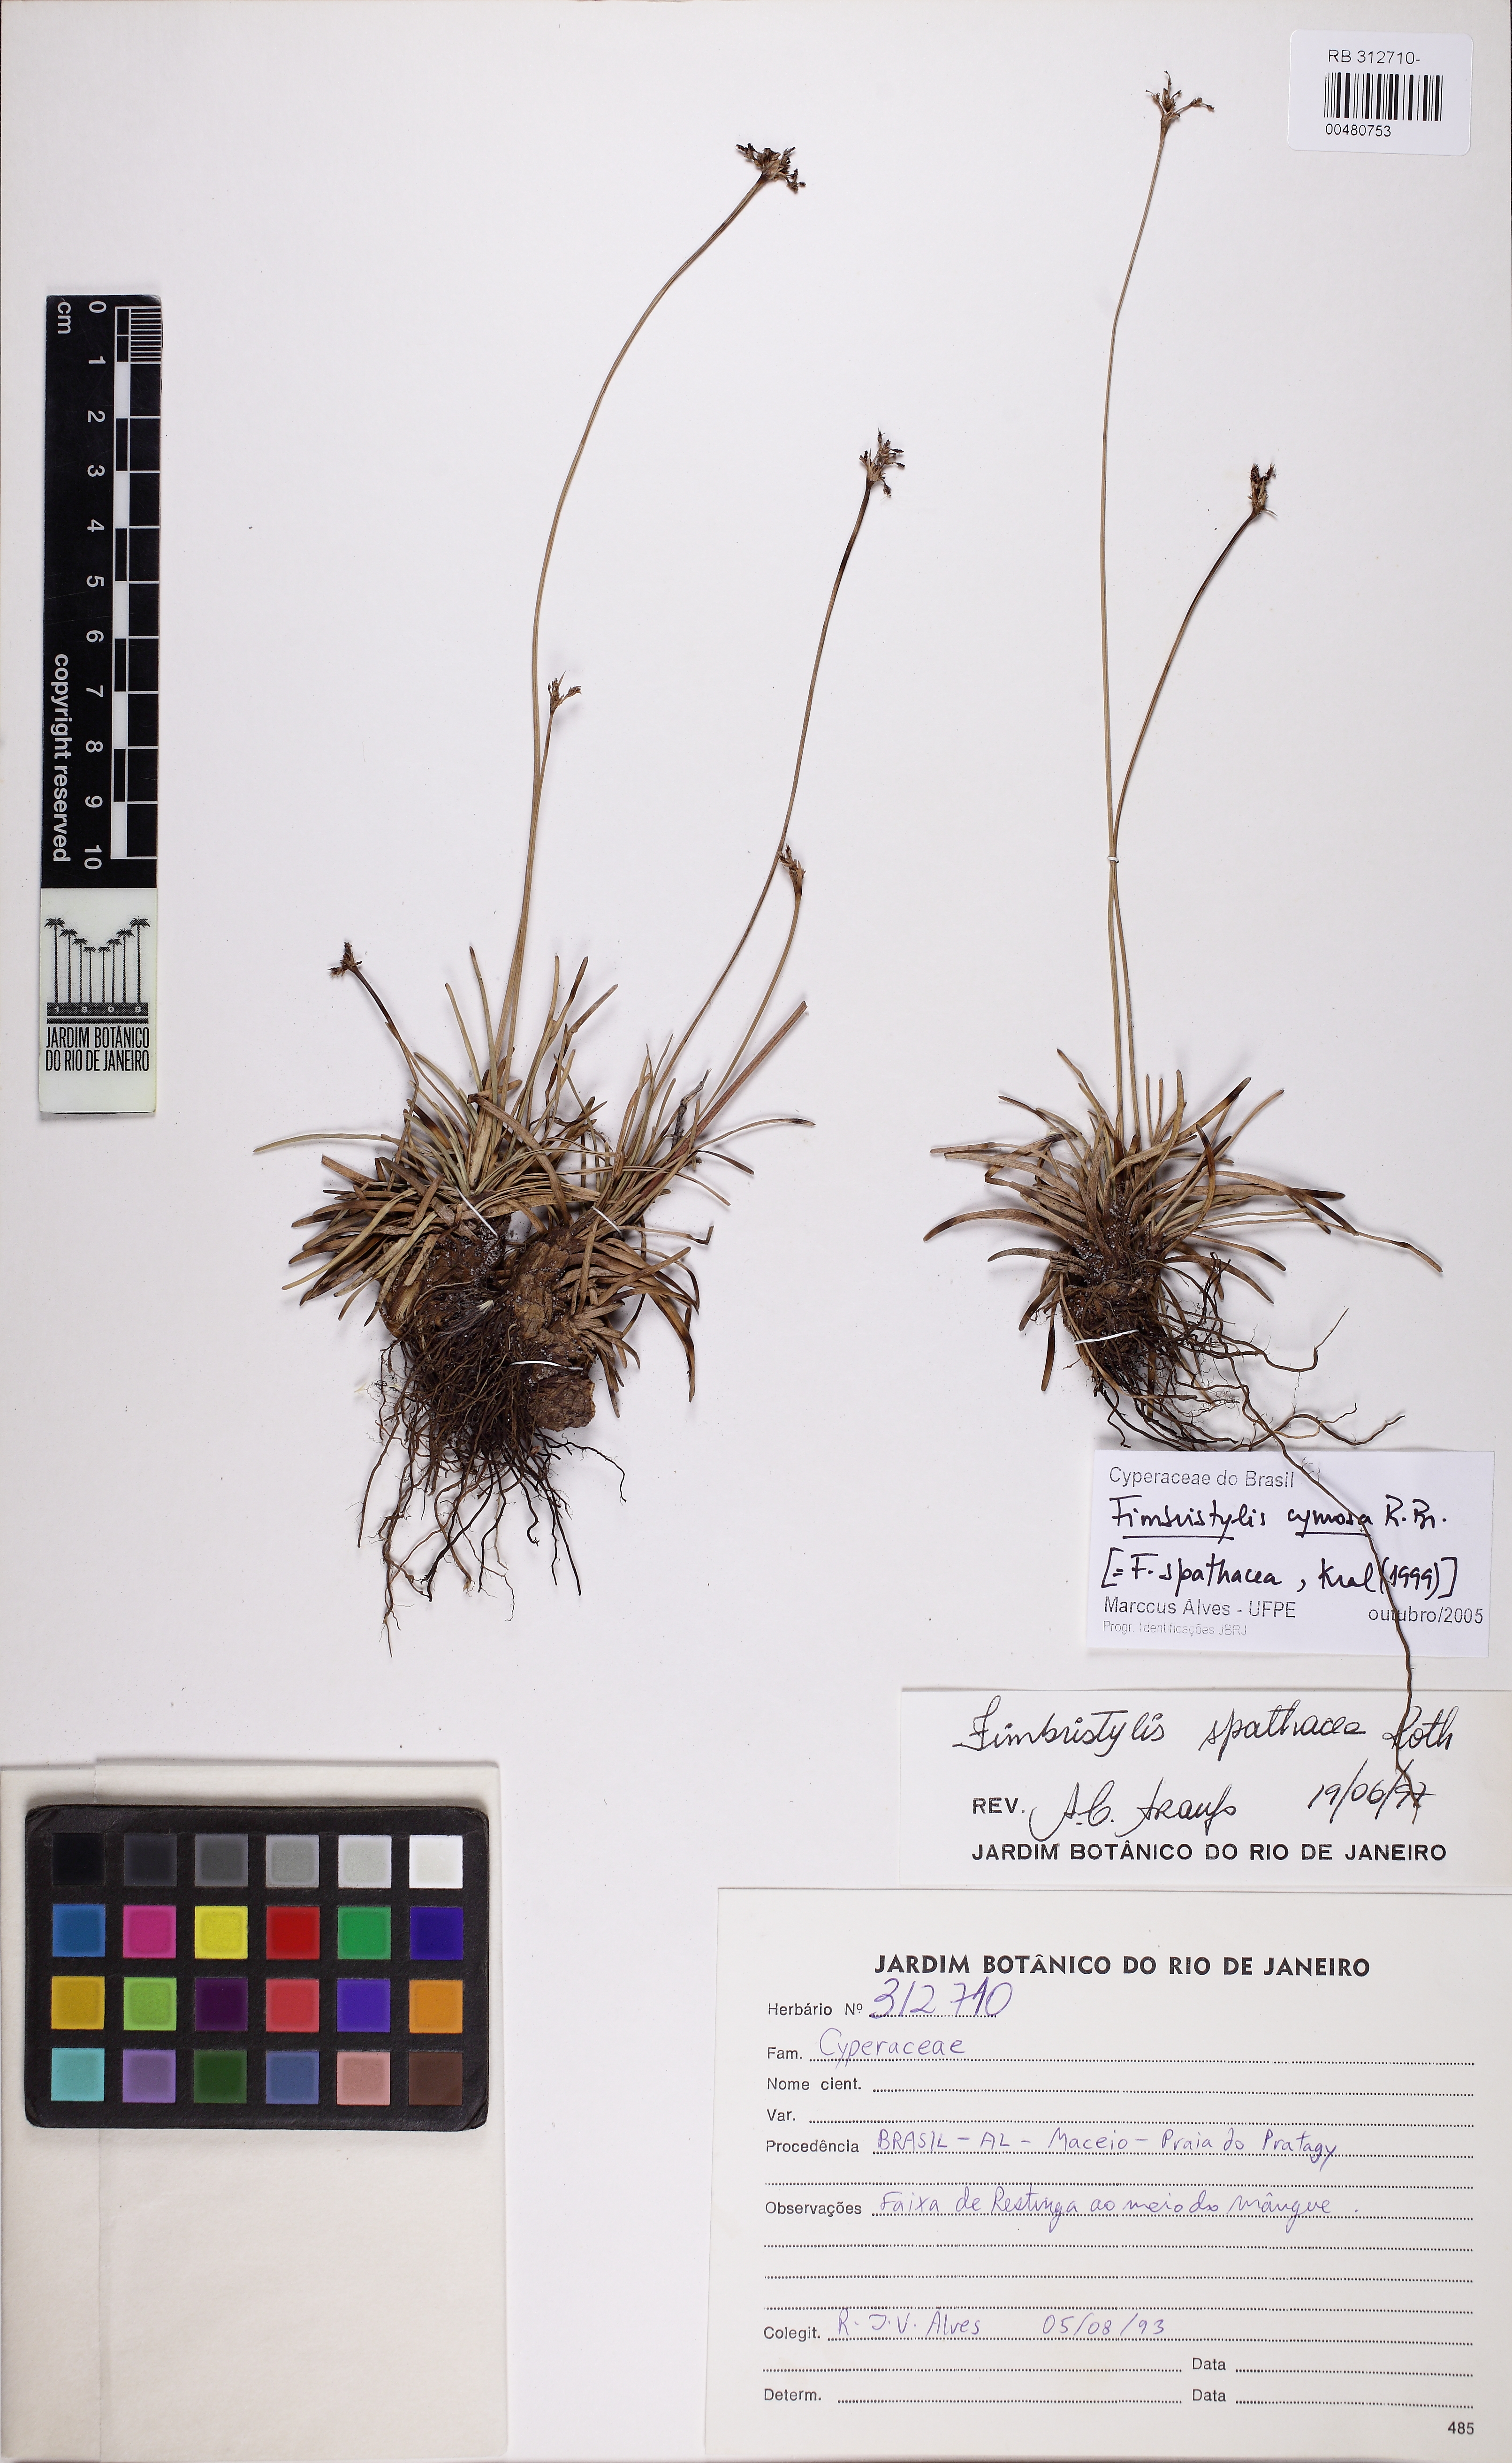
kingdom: Plantae
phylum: Tracheophyta
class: Liliopsida
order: Poales
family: Cyperaceae
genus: Fimbristylis
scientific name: Fimbristylis cymosa
